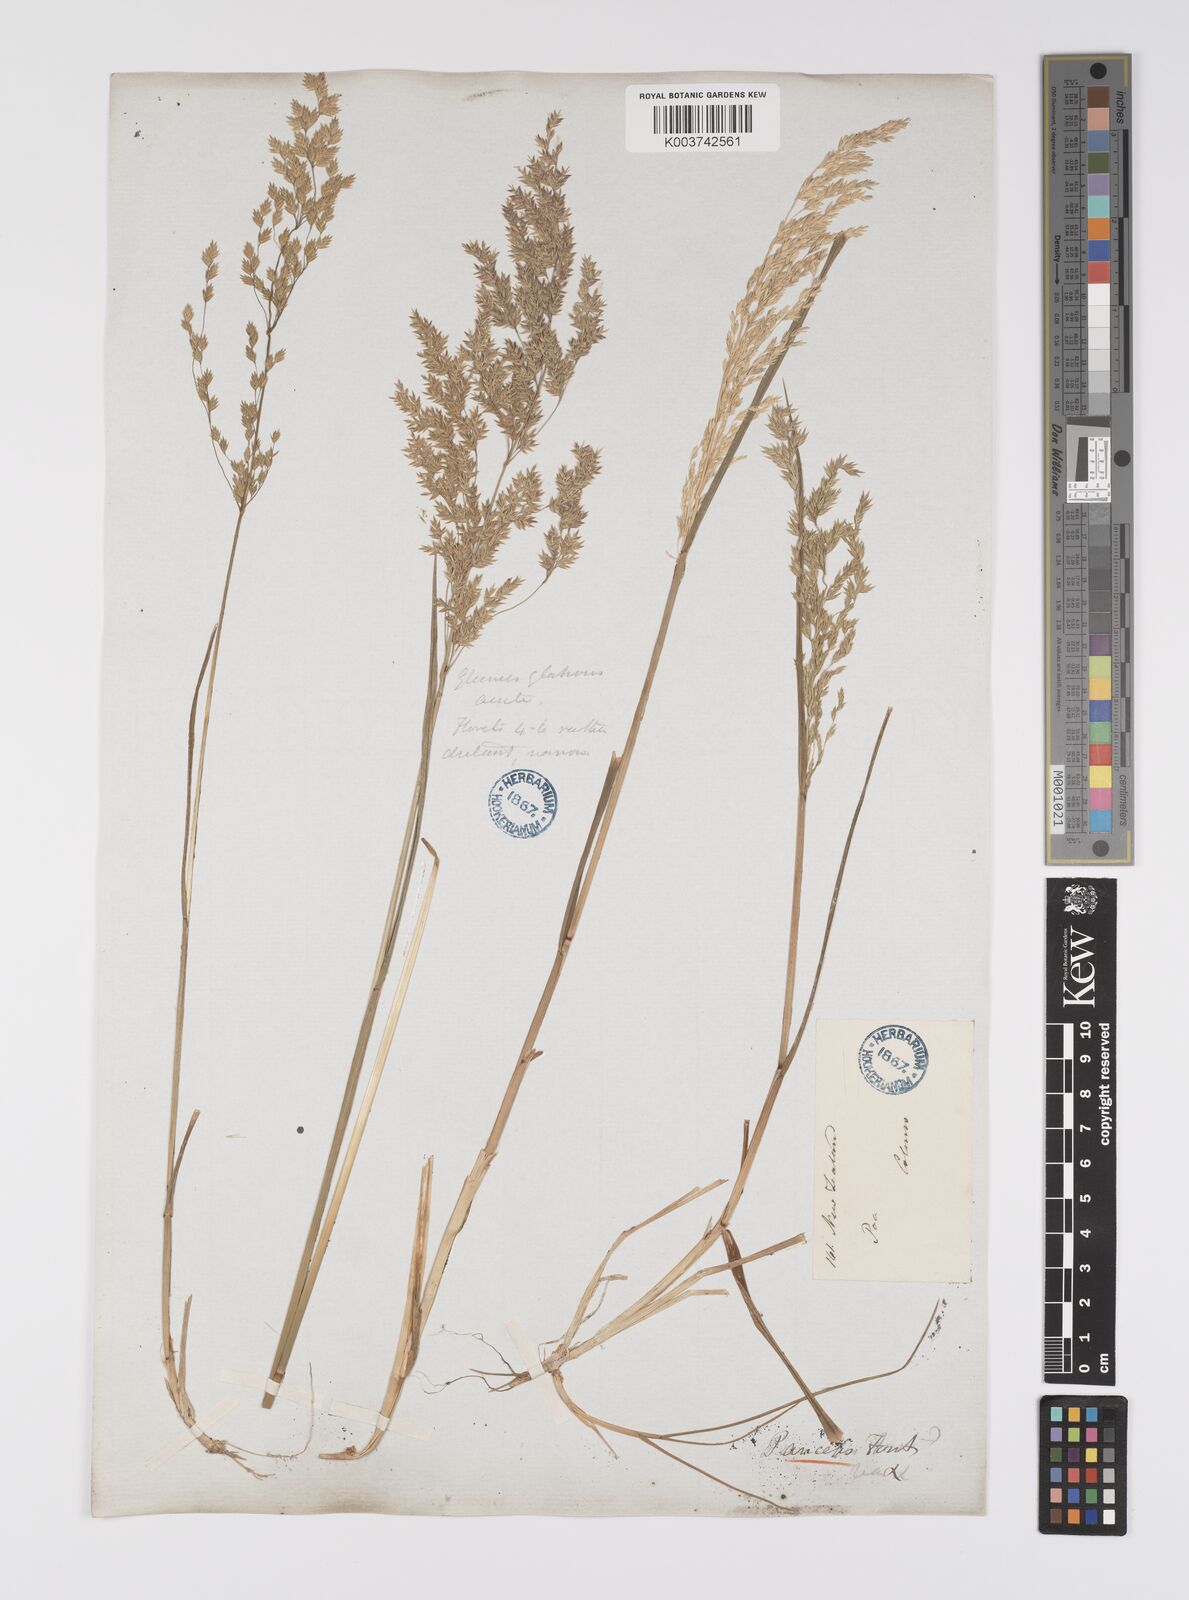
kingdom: Plantae
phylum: Tracheophyta
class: Liliopsida
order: Poales
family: Poaceae
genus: Poa
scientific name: Poa anceps
